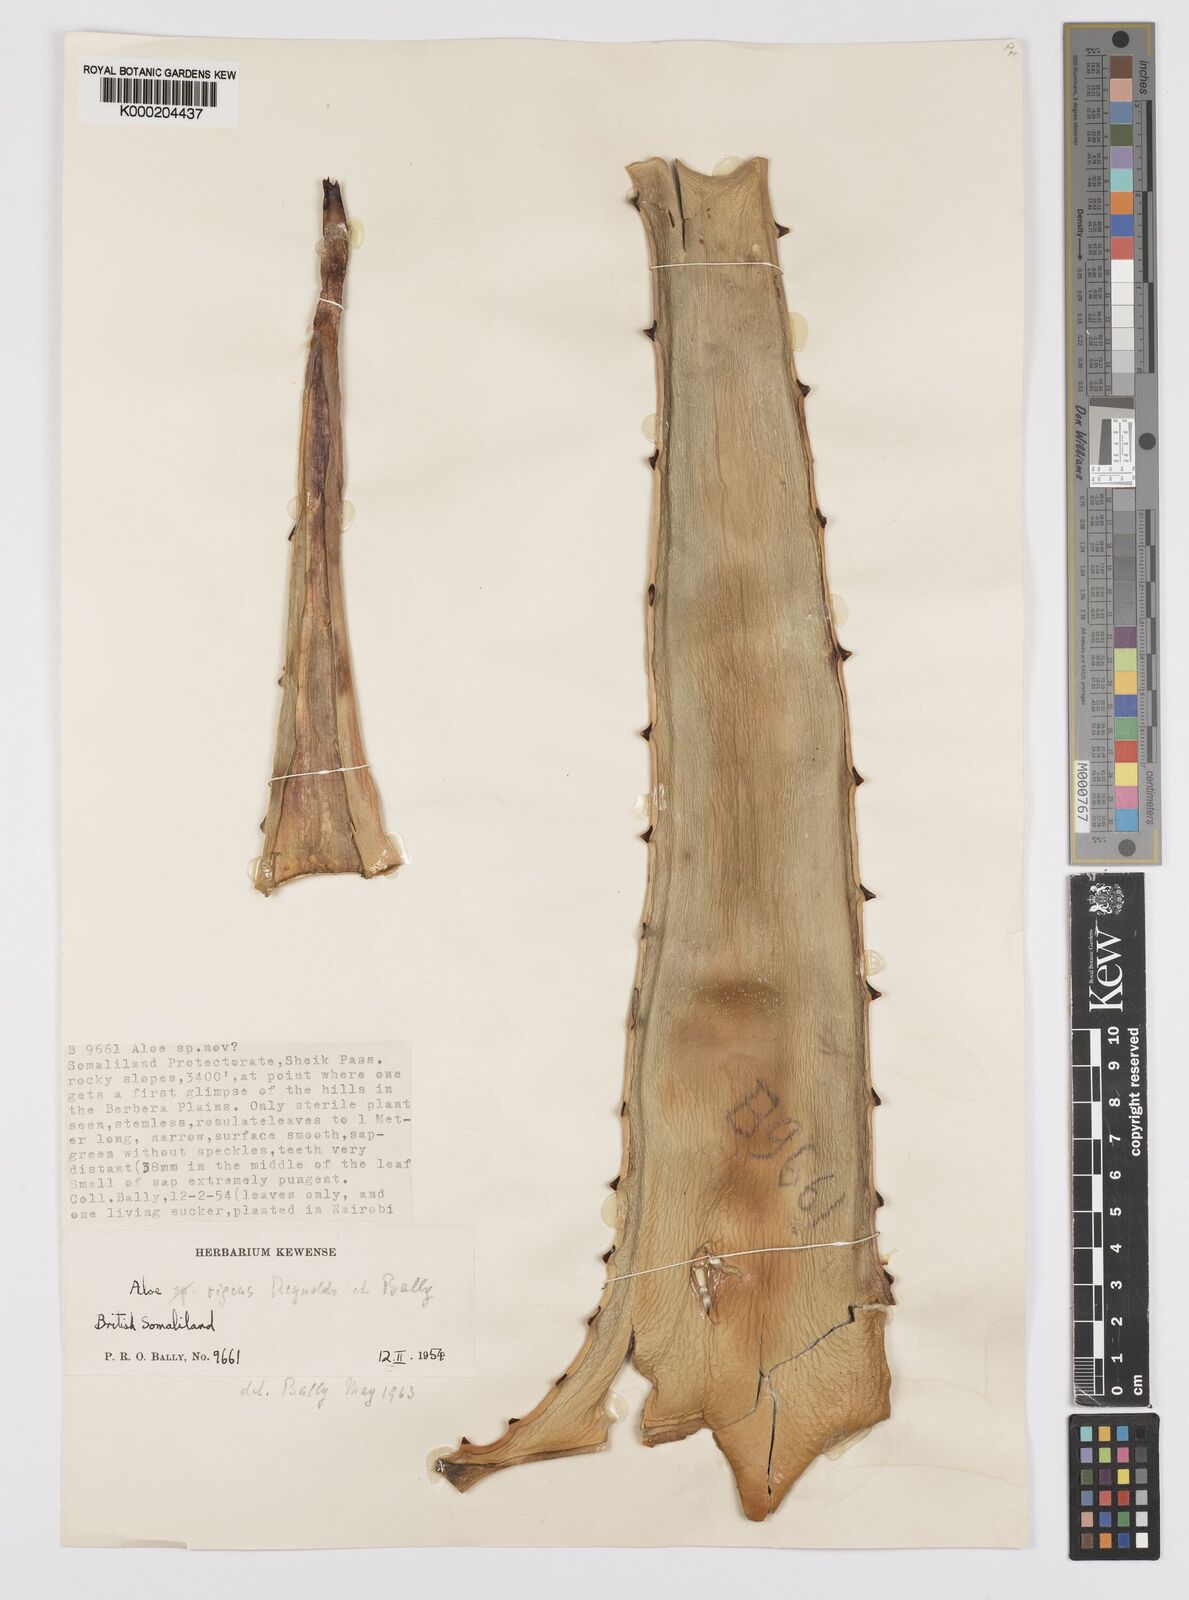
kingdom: Plantae
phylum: Tracheophyta
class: Liliopsida
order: Asparagales
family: Asphodelaceae
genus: Aloe
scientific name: Aloe rigens
